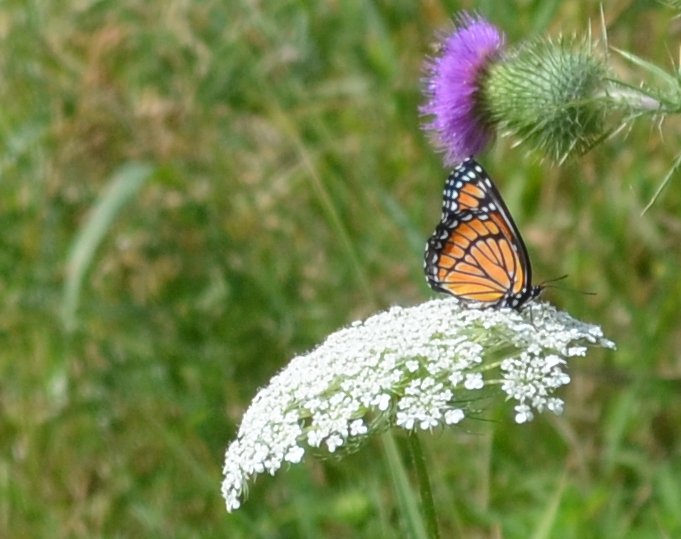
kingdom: Animalia
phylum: Arthropoda
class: Insecta
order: Lepidoptera
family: Nymphalidae
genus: Limenitis
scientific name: Limenitis archippus
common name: Viceroy
